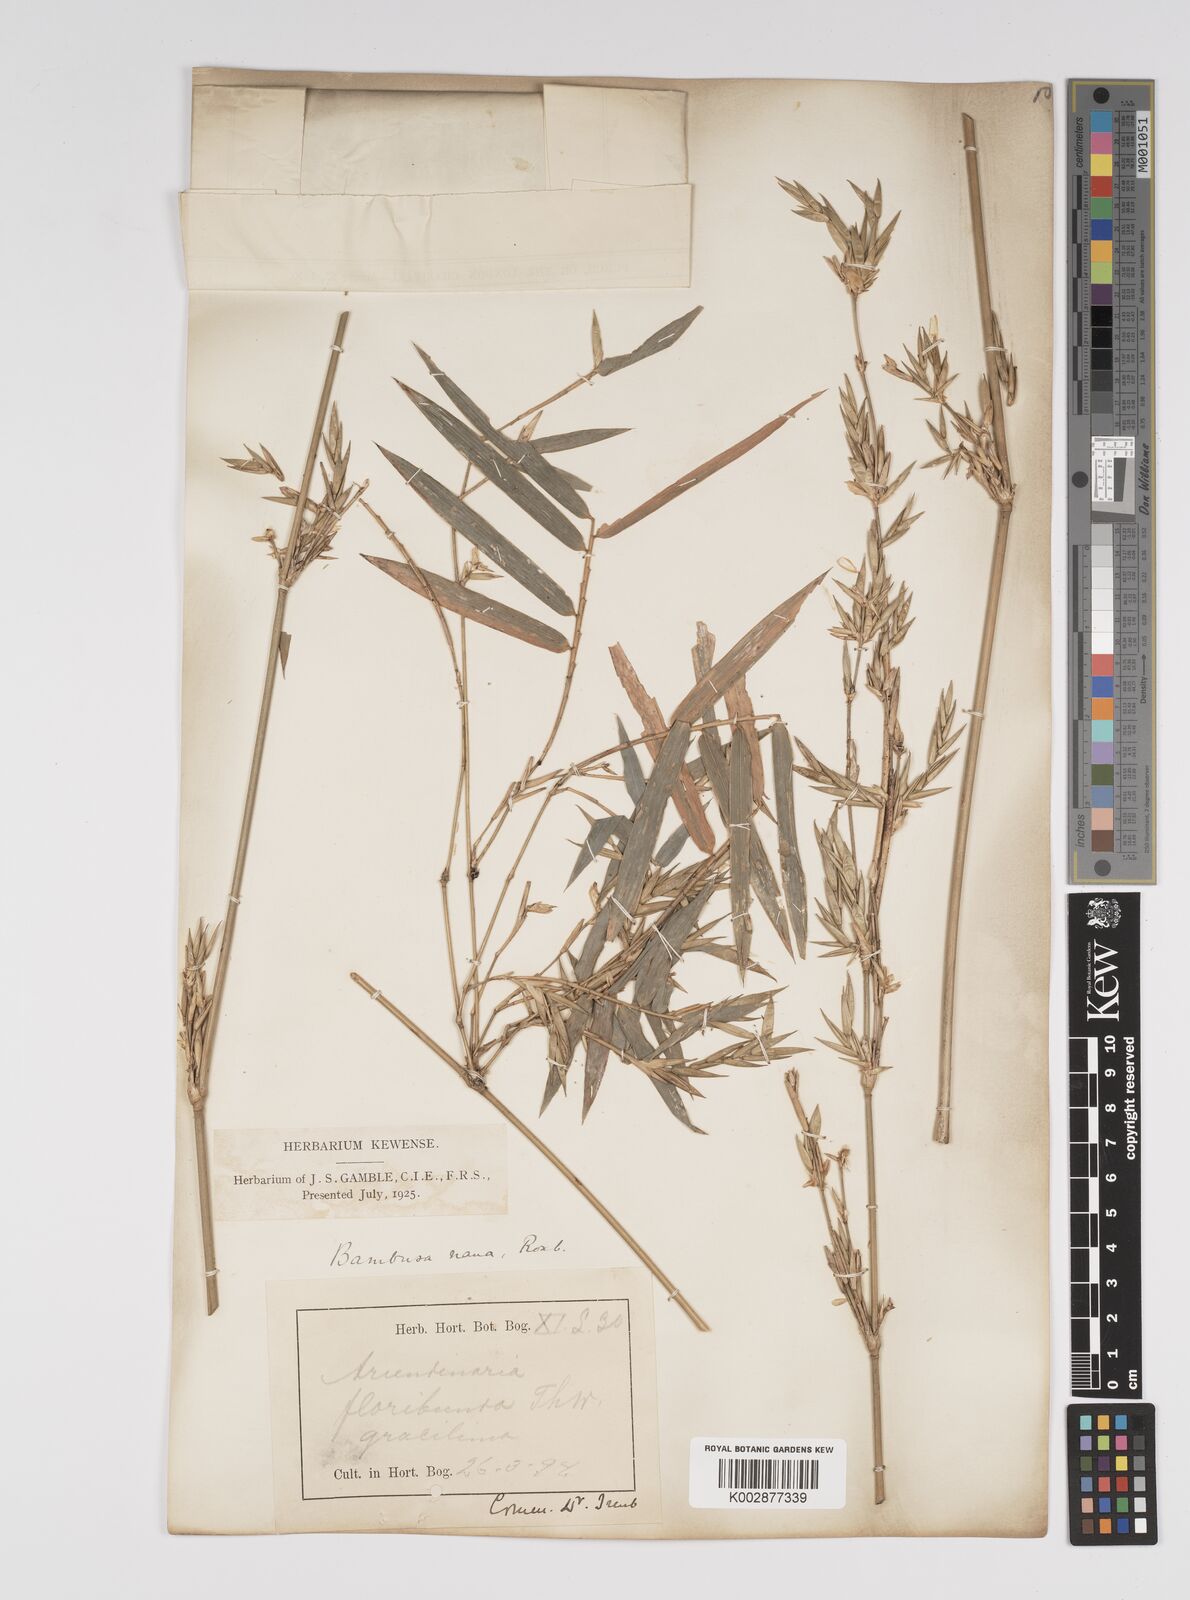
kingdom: Plantae
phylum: Tracheophyta
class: Liliopsida
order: Poales
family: Poaceae
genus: Bambusa
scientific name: Bambusa multiplex
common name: Hedge bamboo
